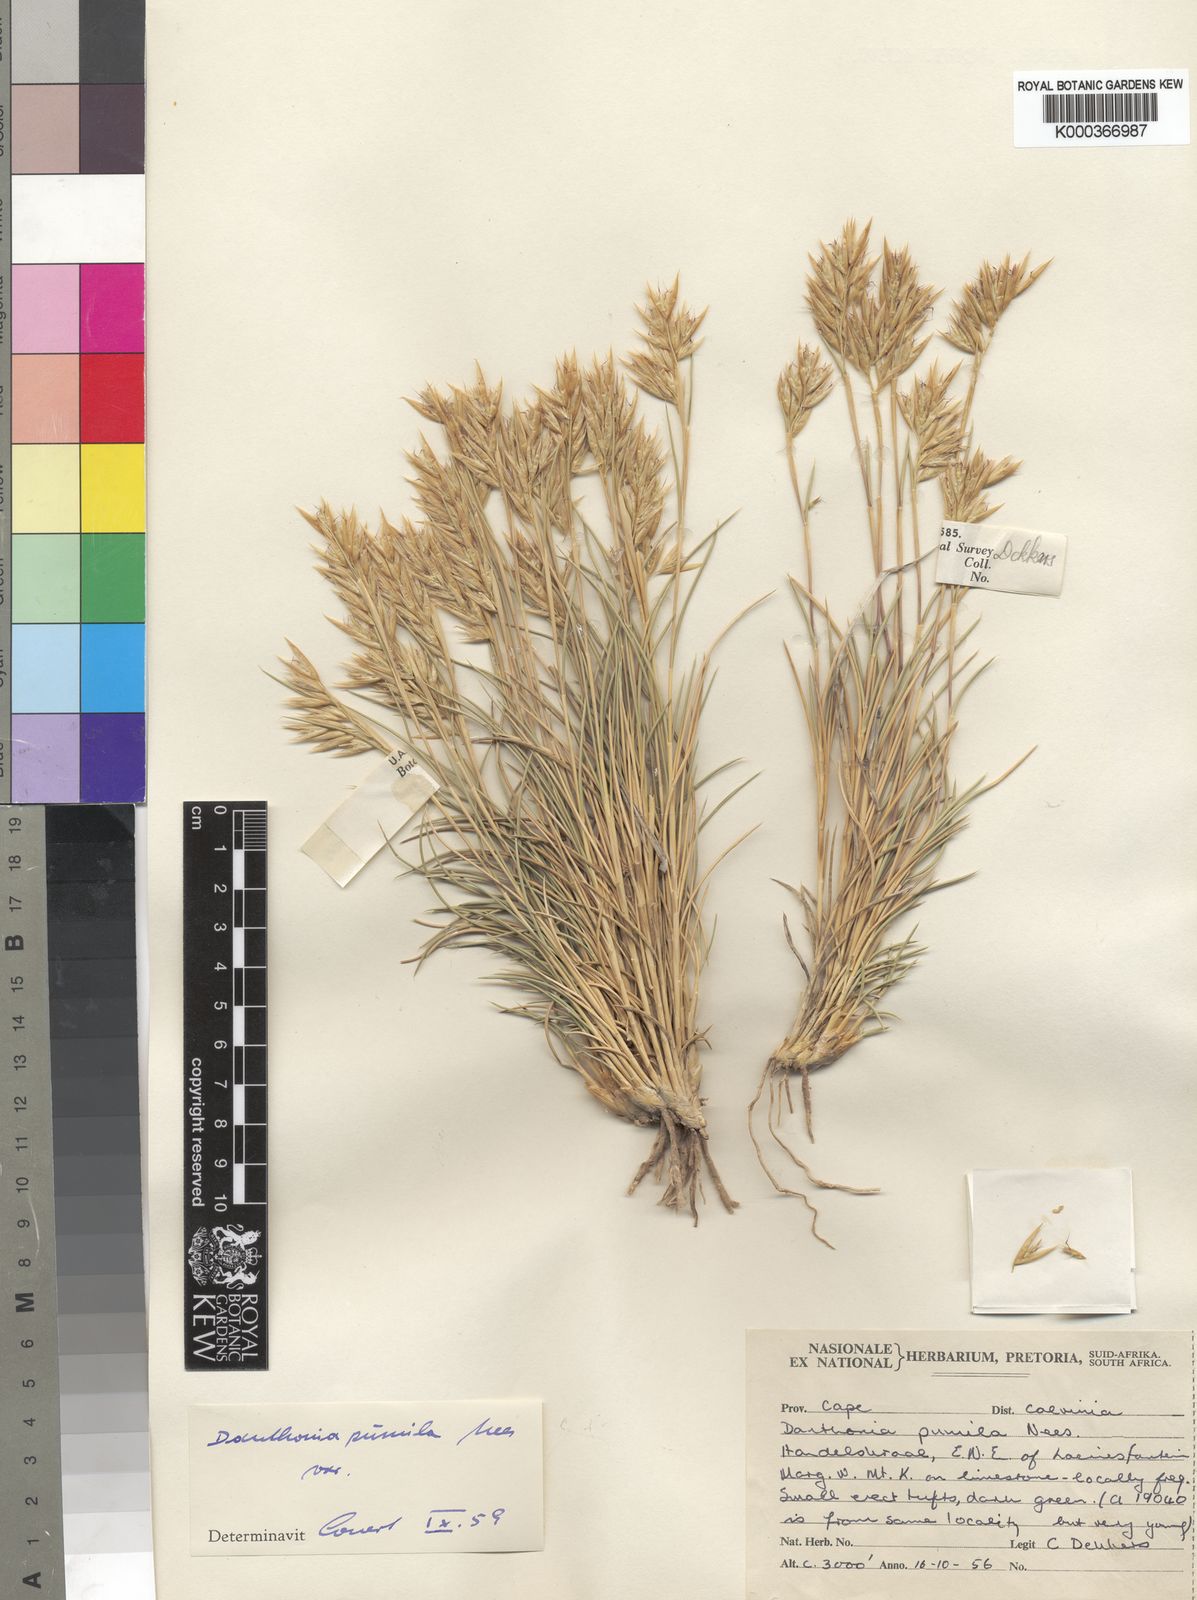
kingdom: Plantae
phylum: Tracheophyta
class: Liliopsida
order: Poales
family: Poaceae
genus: Dregeochloa
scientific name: Dregeochloa calviniensis
